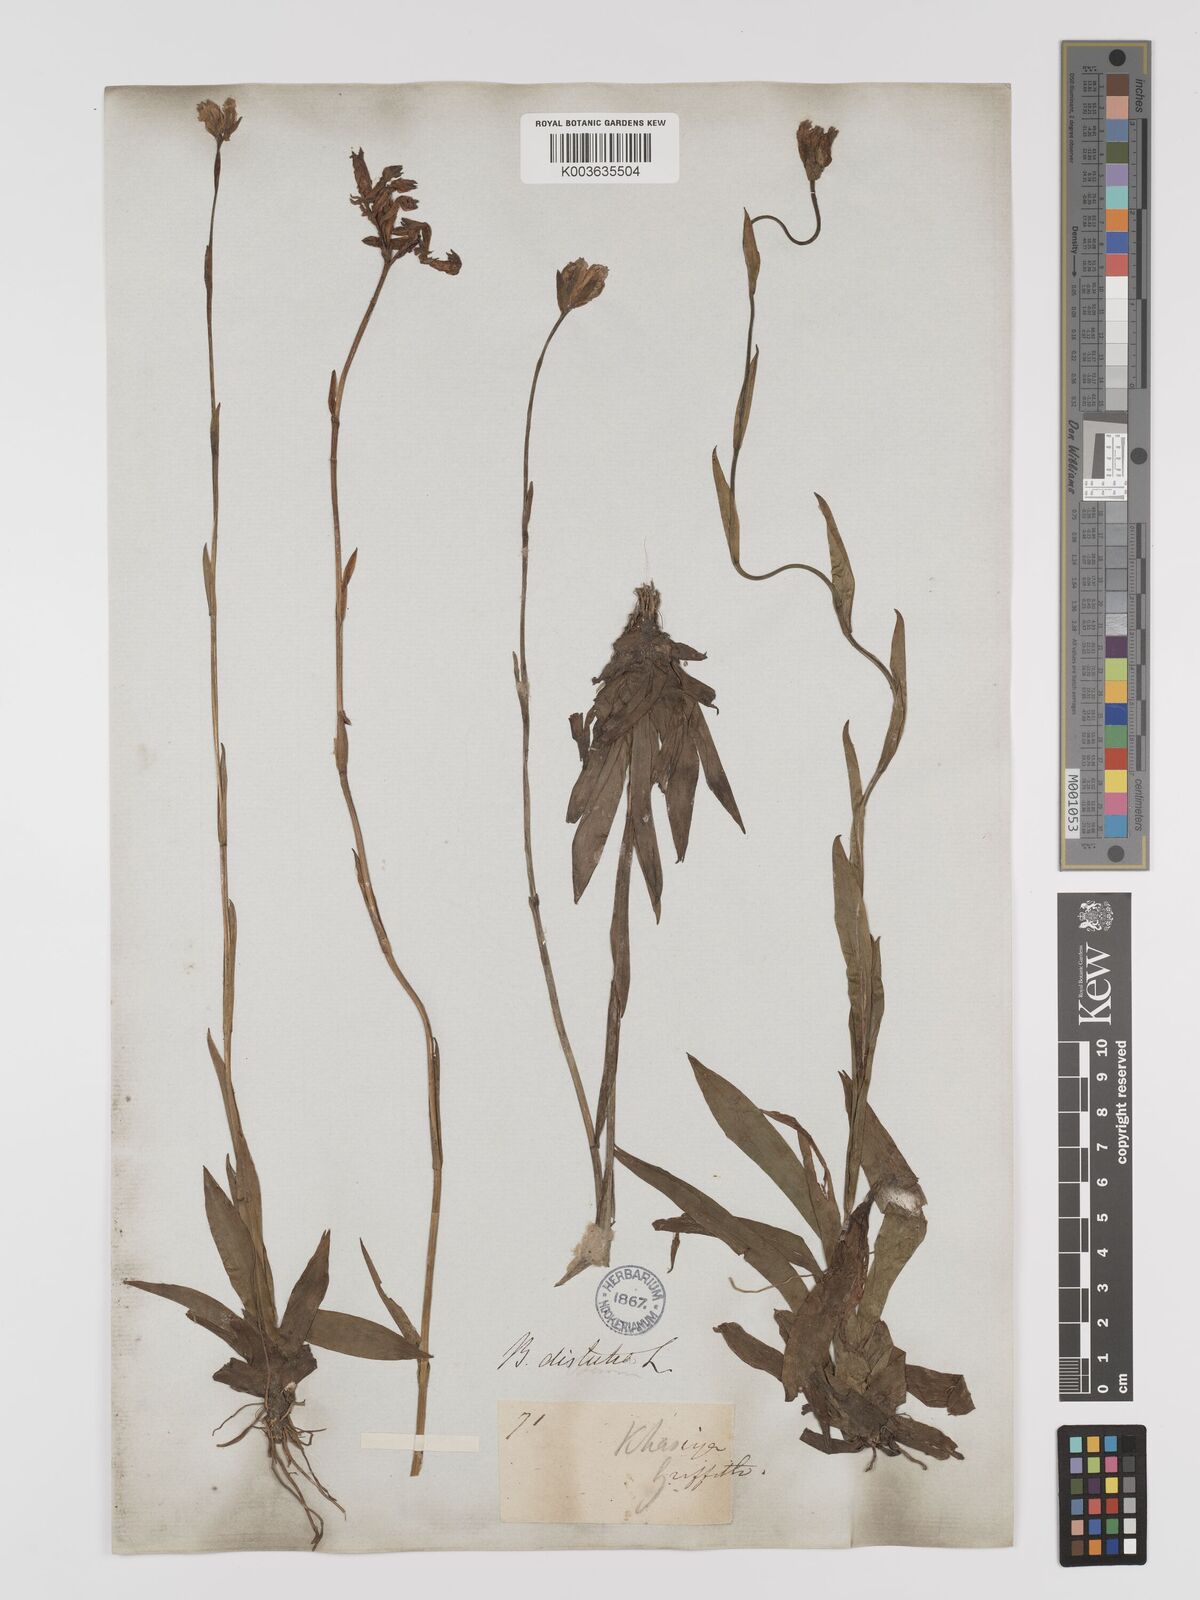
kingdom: Plantae
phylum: Tracheophyta
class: Liliopsida
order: Dioscoreales
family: Burmanniaceae
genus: Burmannia
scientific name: Burmannia disticha
